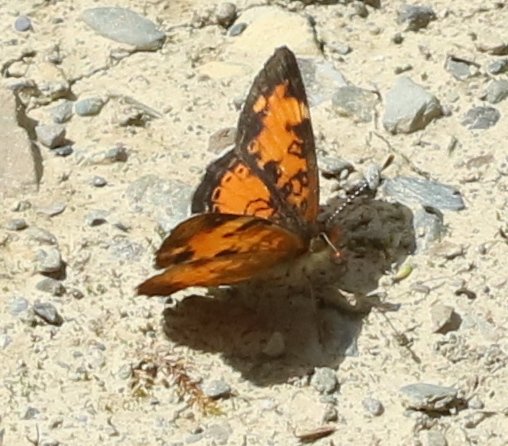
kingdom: Animalia
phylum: Arthropoda
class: Insecta
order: Lepidoptera
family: Nymphalidae
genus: Phyciodes
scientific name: Phyciodes tharos
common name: Northern Crescent
